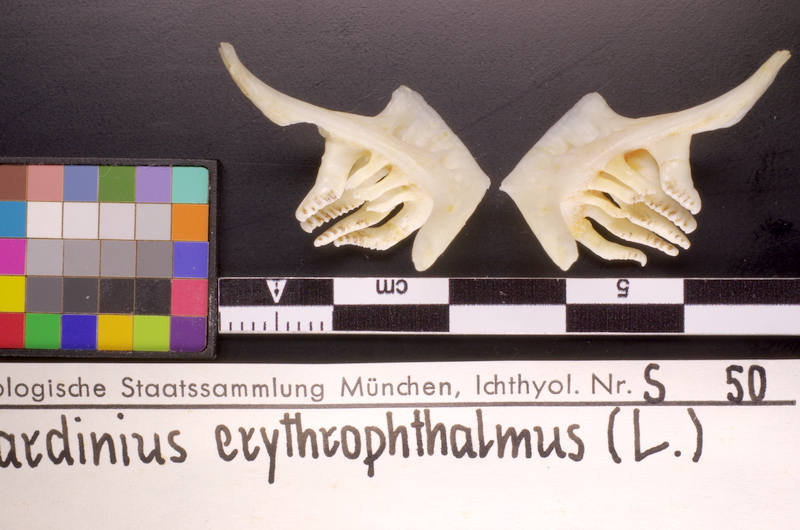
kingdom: Animalia
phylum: Chordata
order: Cypriniformes
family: Cyprinidae
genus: Scardinius
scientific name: Scardinius erythrophthalmus
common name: Rudd
